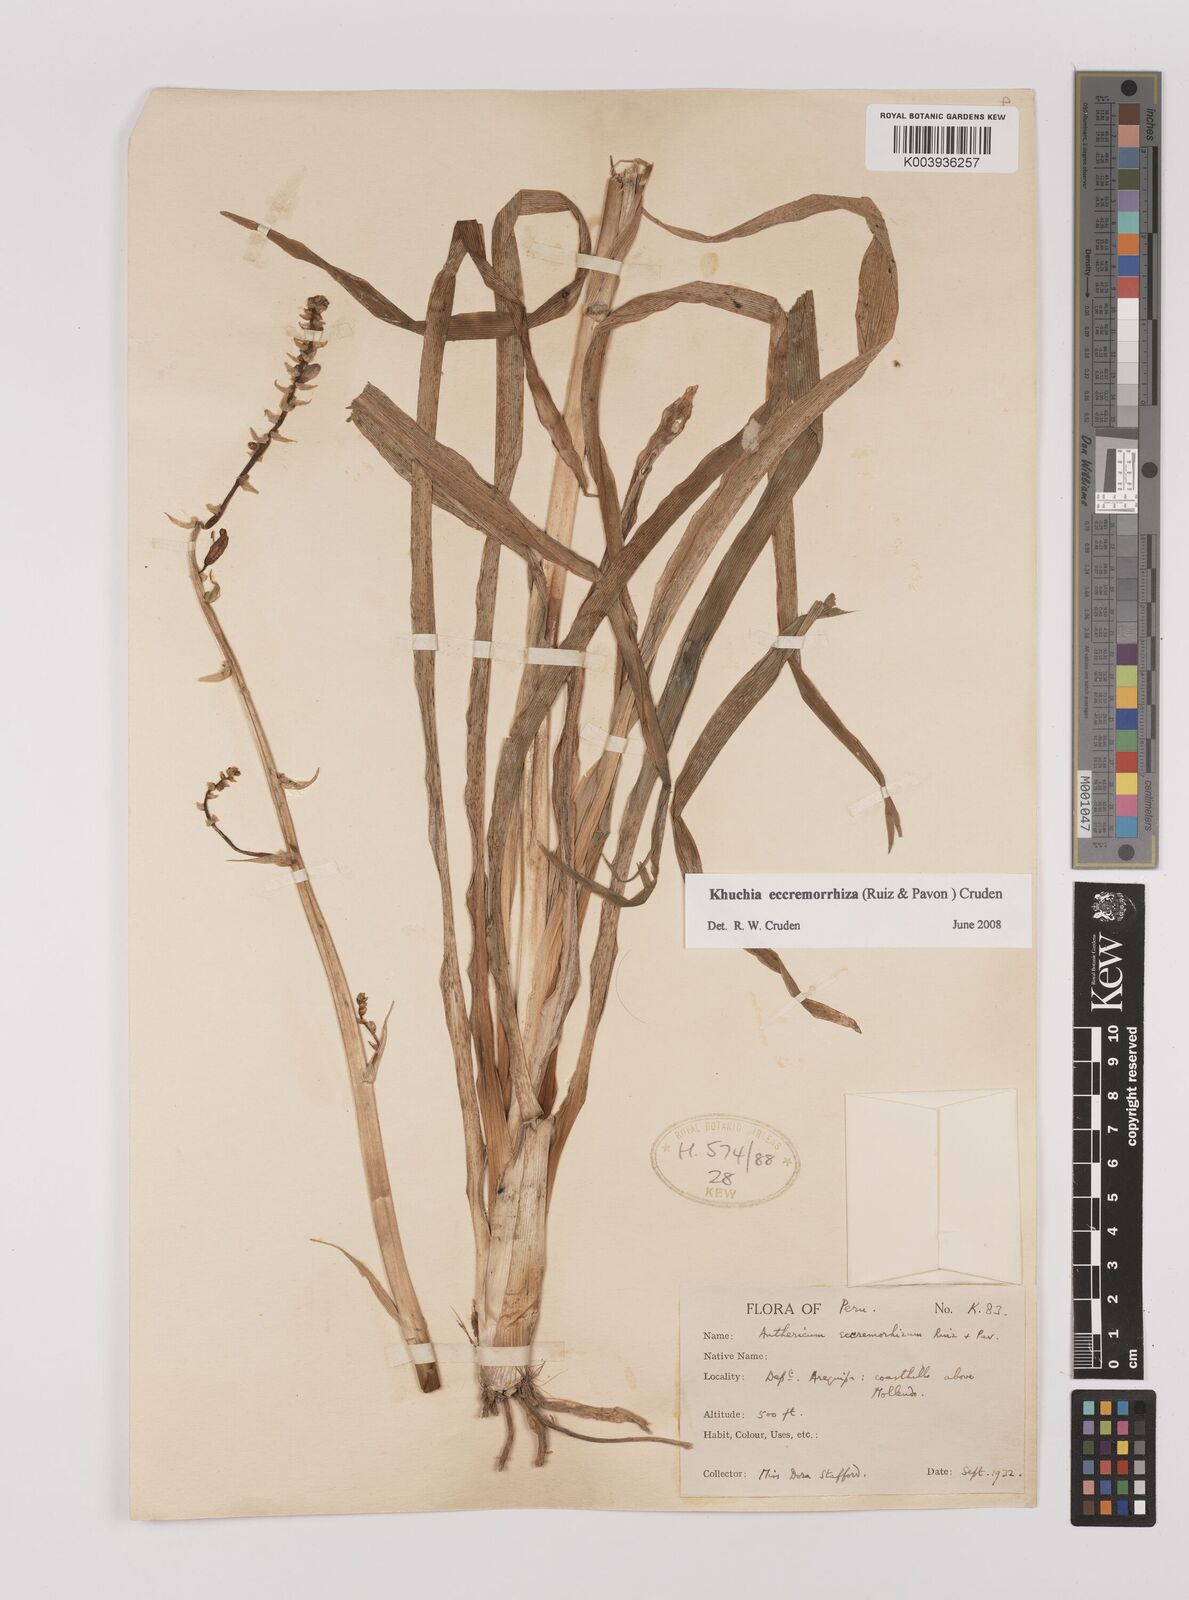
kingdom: Plantae
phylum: Tracheophyta
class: Liliopsida
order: Asparagales
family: Asparagaceae
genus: Echeandia
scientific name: Echeandia
